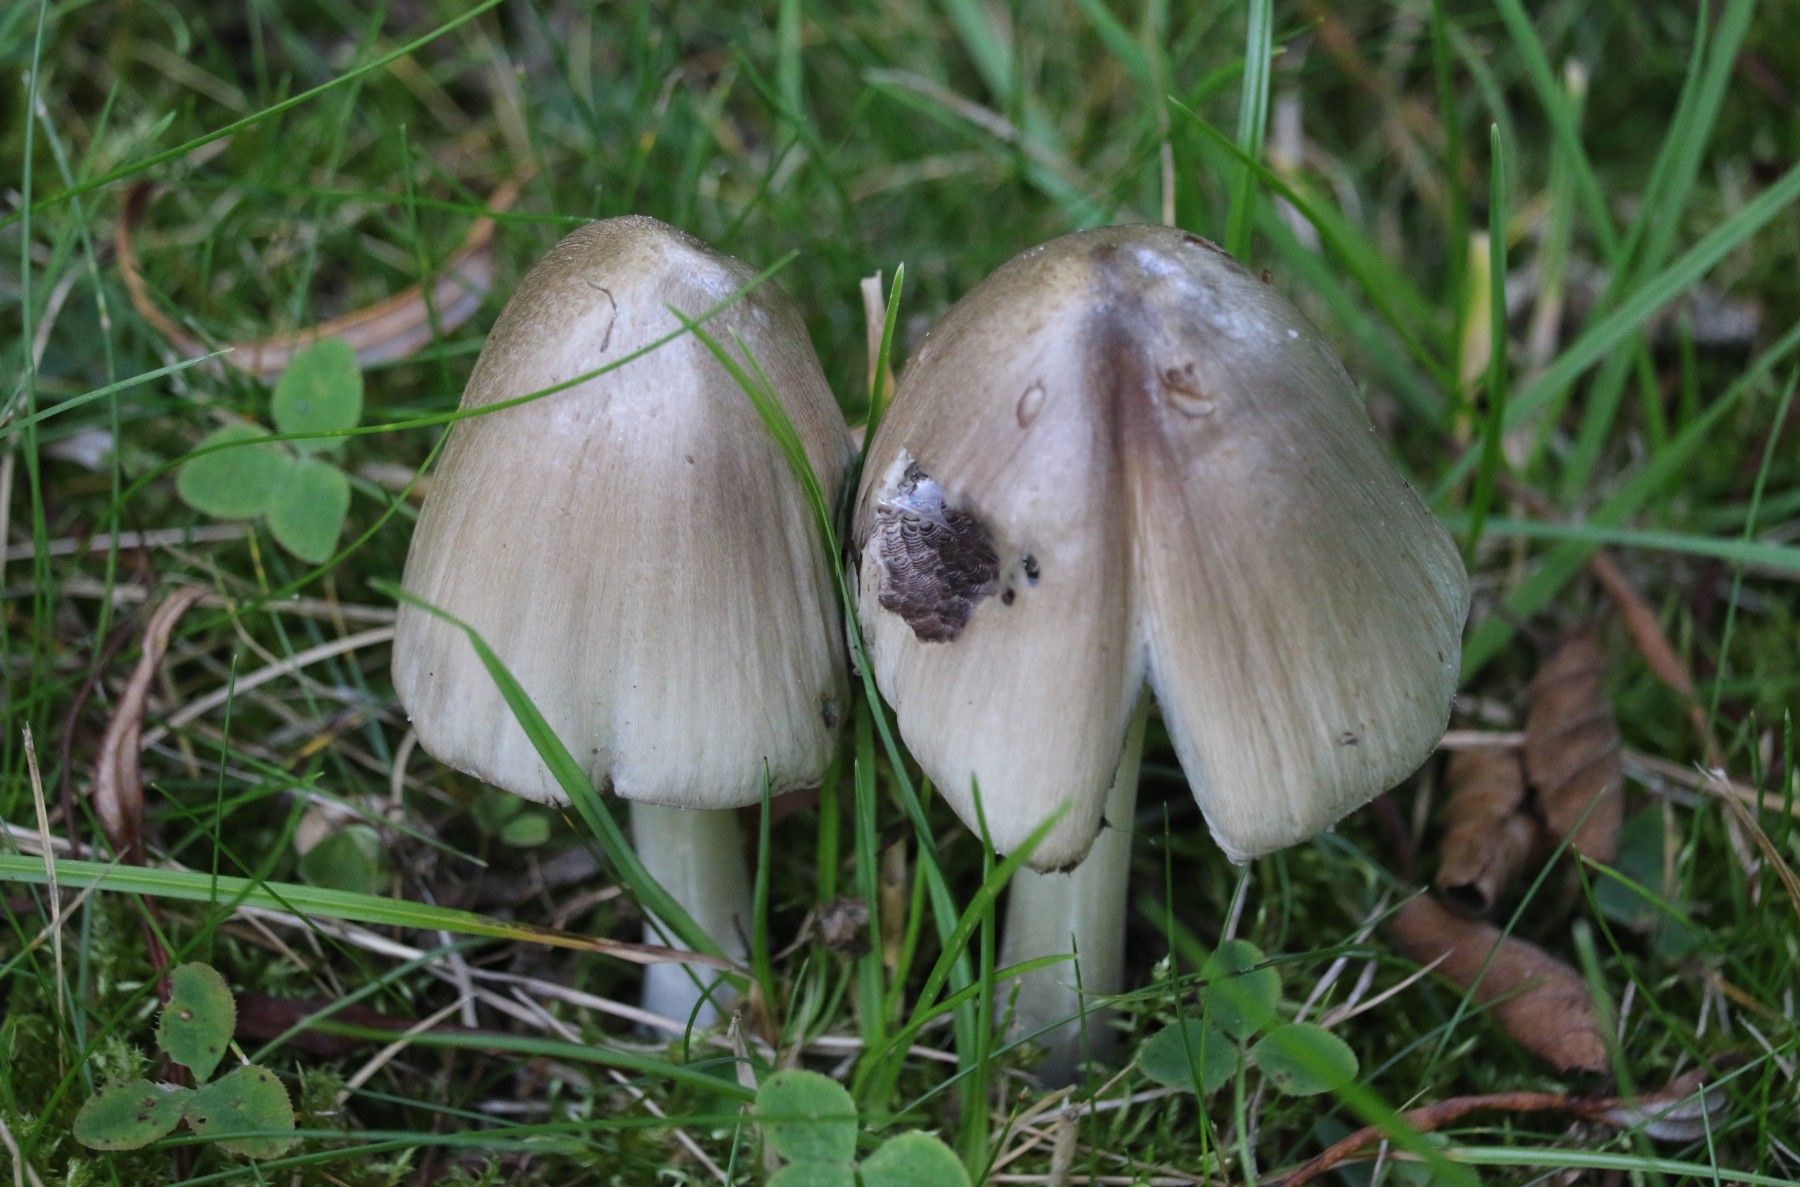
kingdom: Fungi
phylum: Basidiomycota
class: Agaricomycetes
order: Agaricales
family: Psathyrellaceae
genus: Coprinopsis
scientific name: Coprinopsis atramentaria
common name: almindelig blækhat
